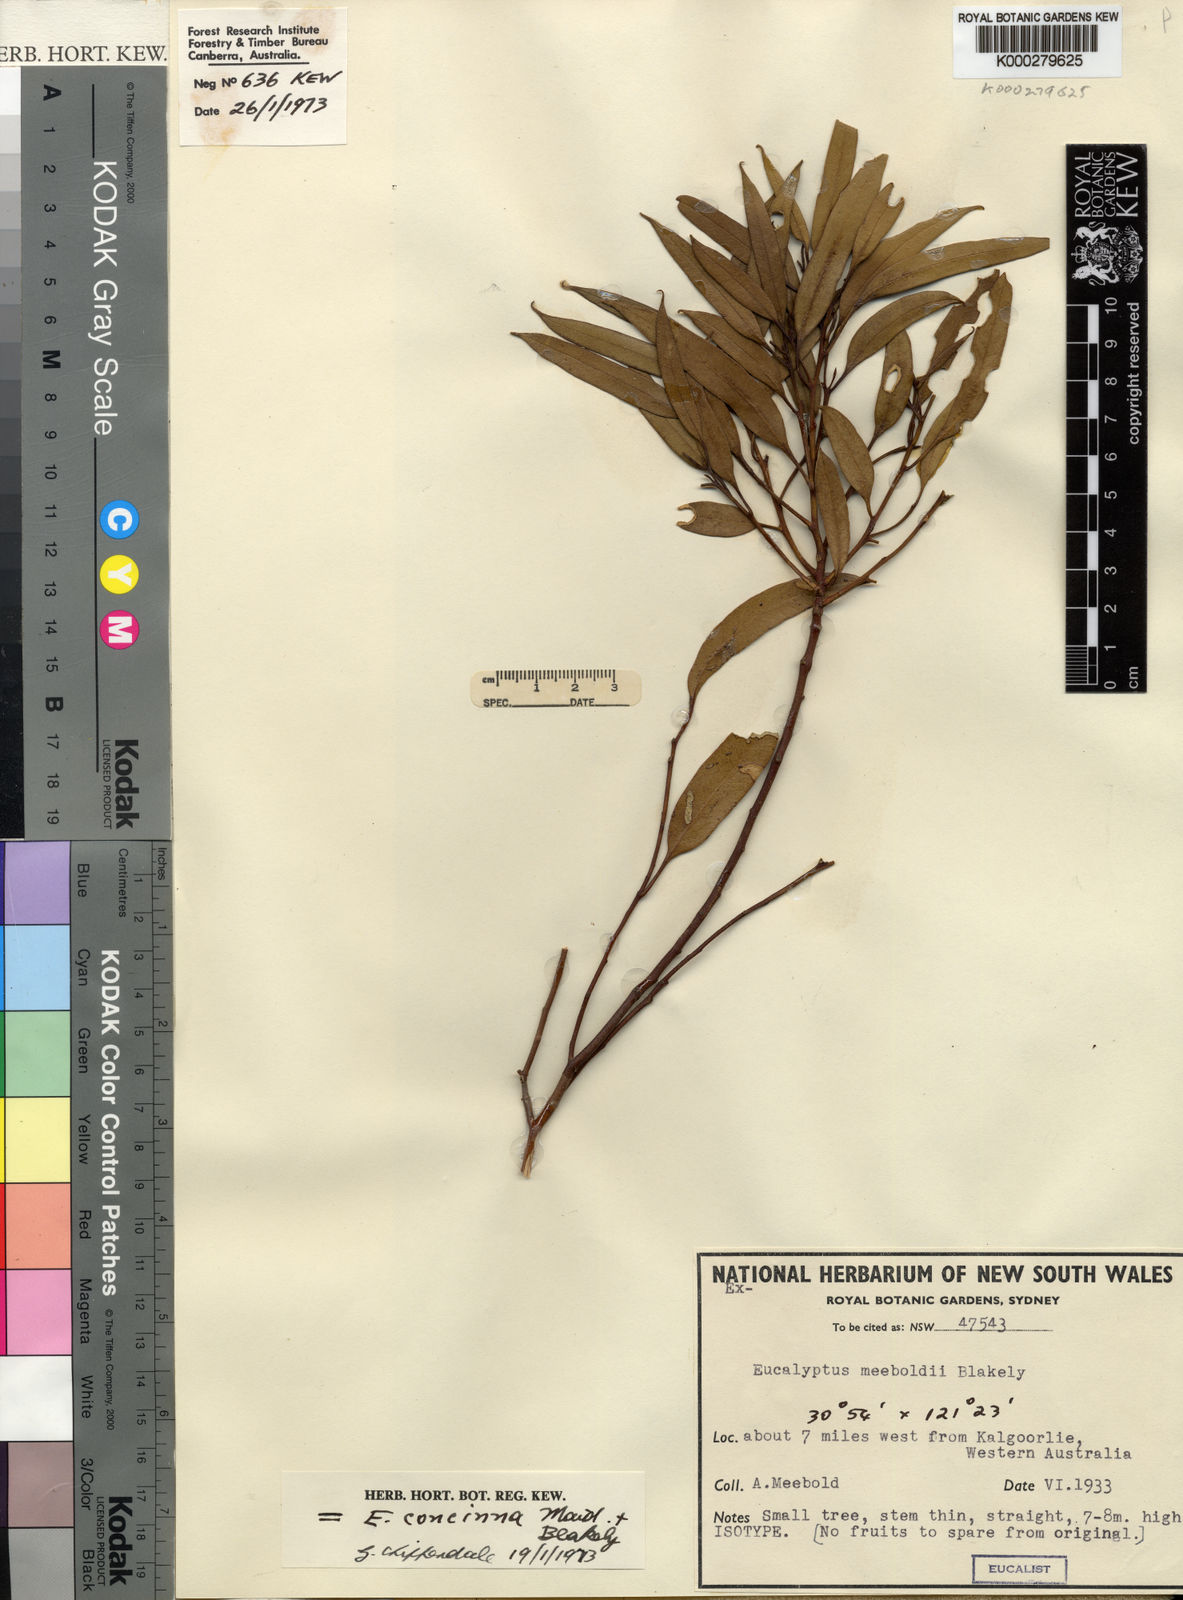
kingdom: Plantae
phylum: Tracheophyta
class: Magnoliopsida
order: Myrtales
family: Myrtaceae
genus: Eucalyptus
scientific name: Eucalyptus concinna
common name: Desert gum
